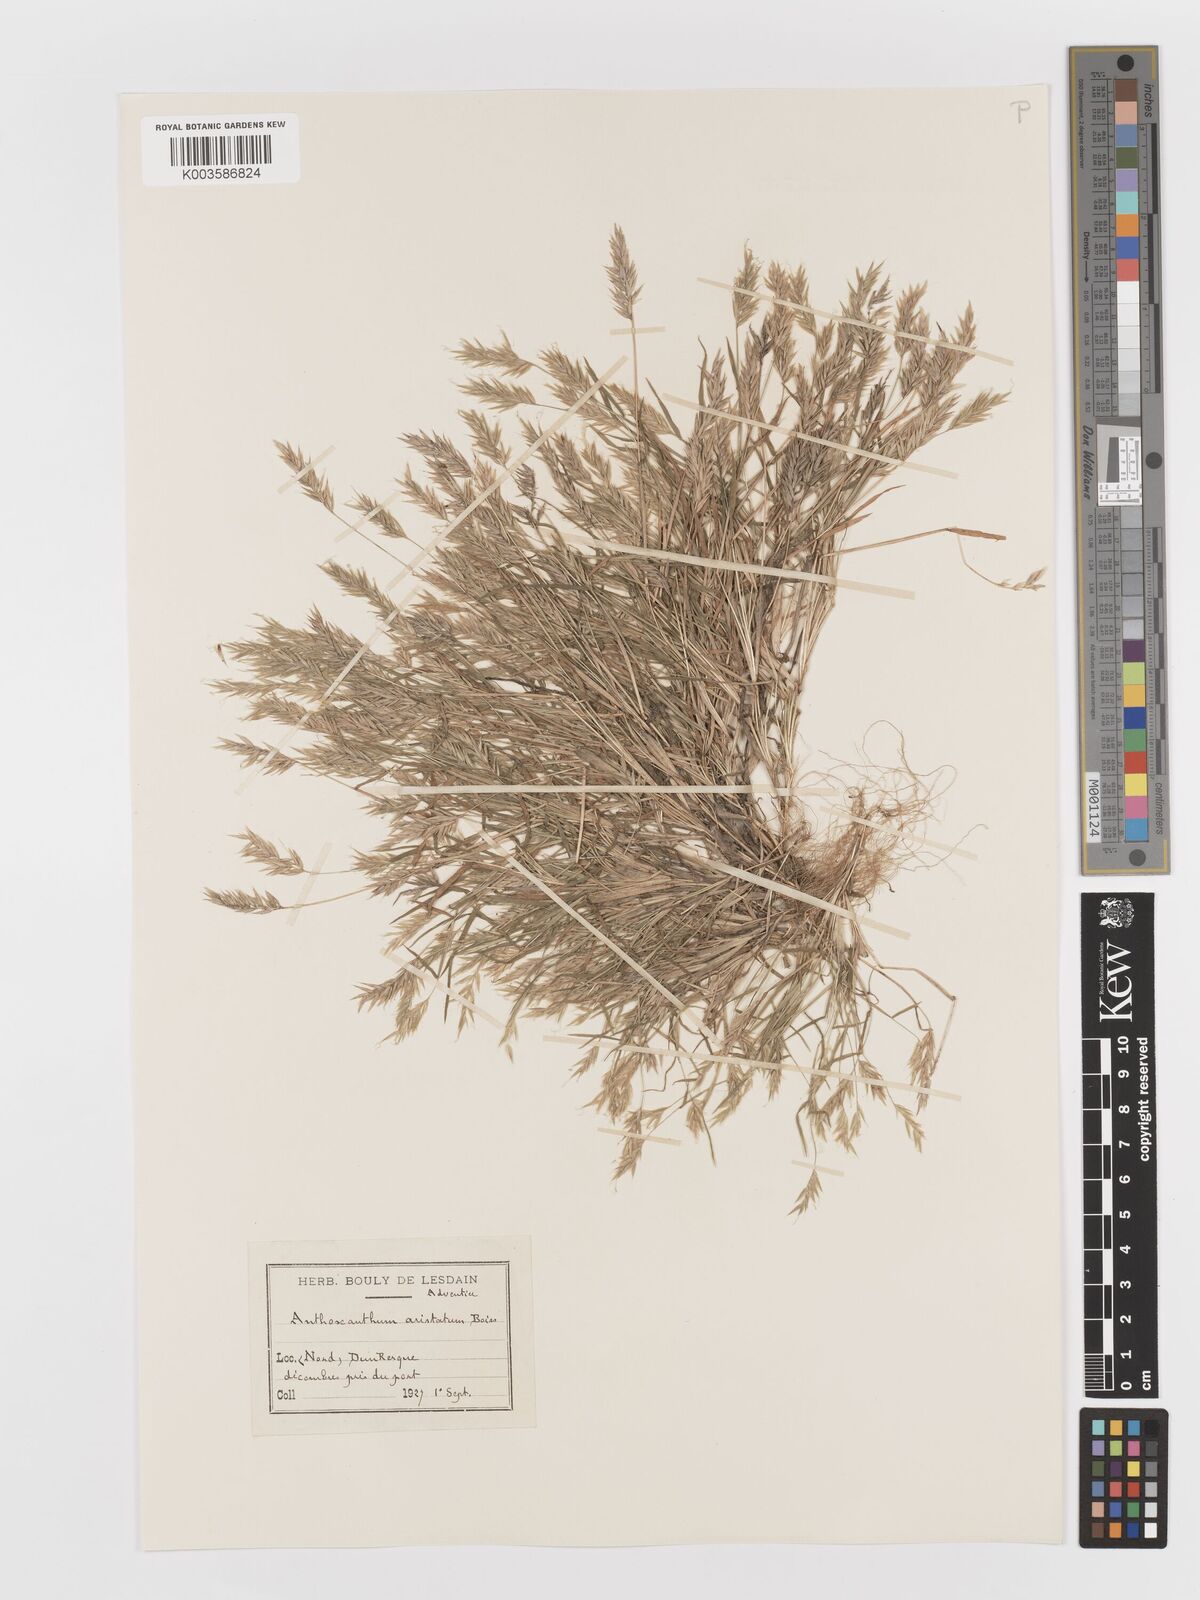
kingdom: Plantae
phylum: Tracheophyta
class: Liliopsida
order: Poales
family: Poaceae
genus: Anthoxanthum
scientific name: Anthoxanthum
